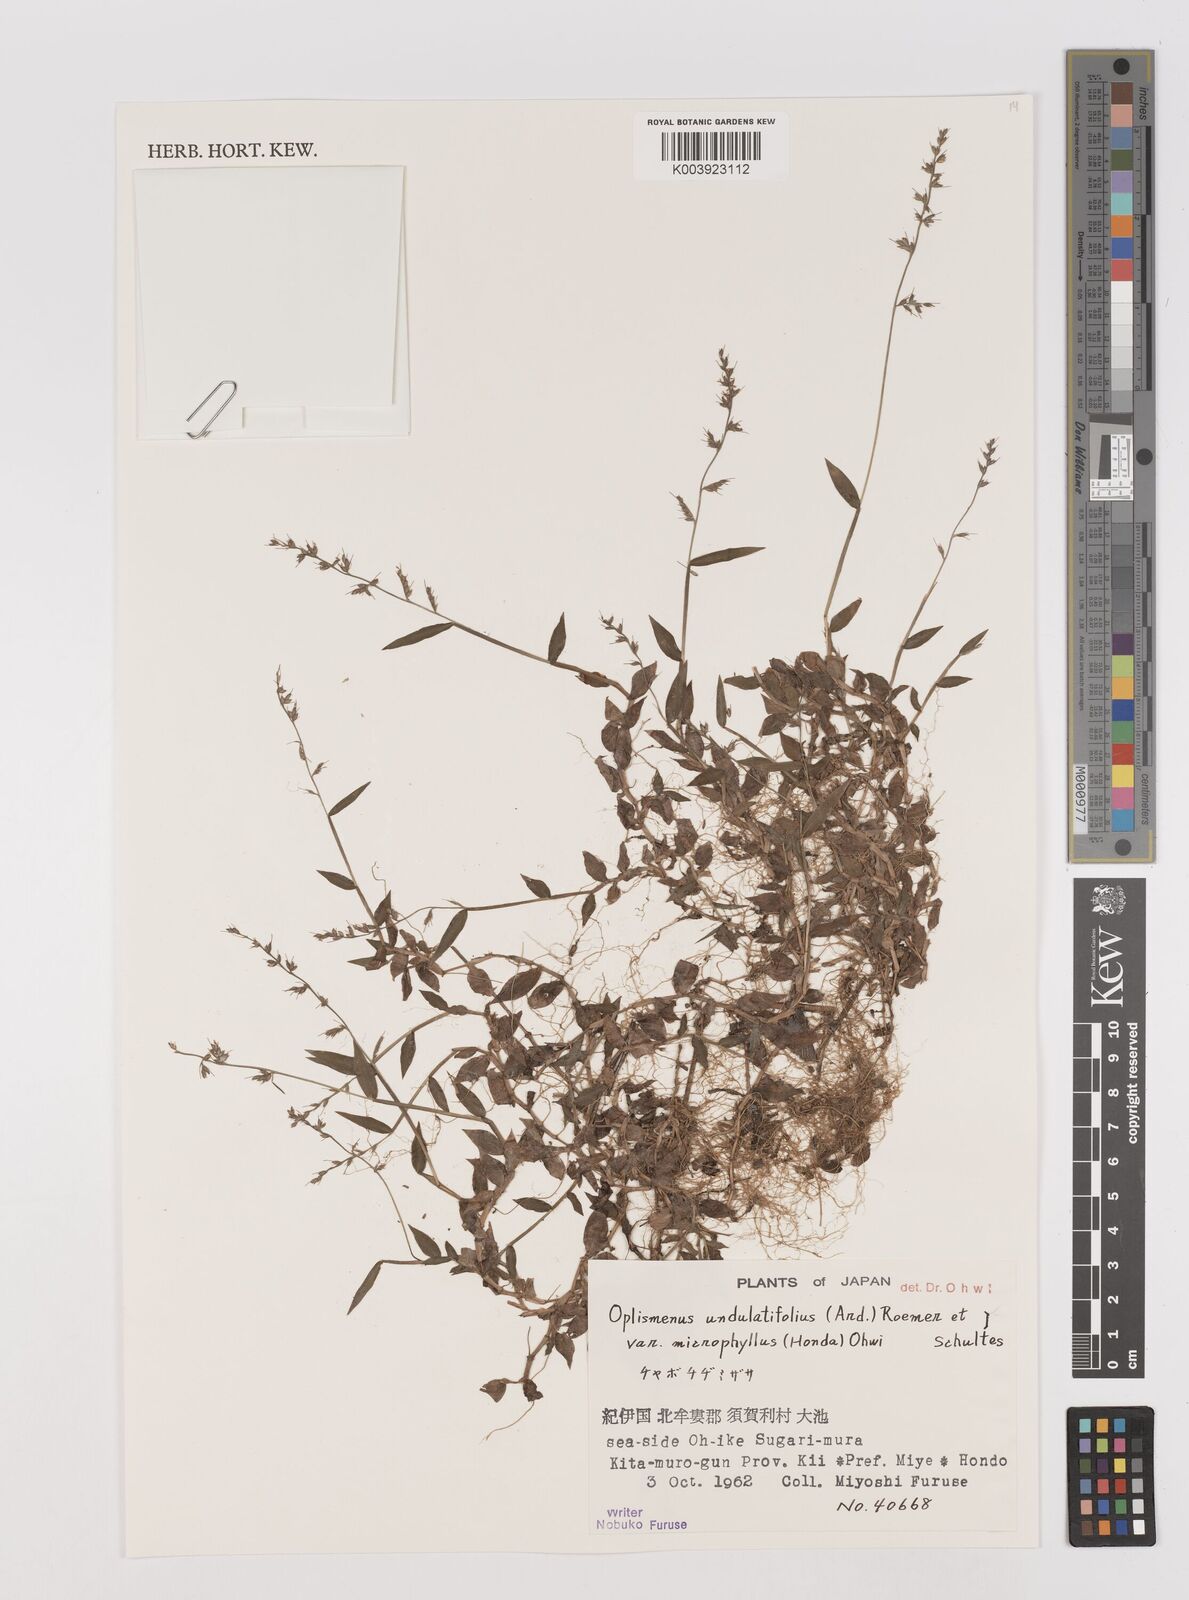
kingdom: Plantae
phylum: Tracheophyta
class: Liliopsida
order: Poales
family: Poaceae
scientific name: Poaceae
